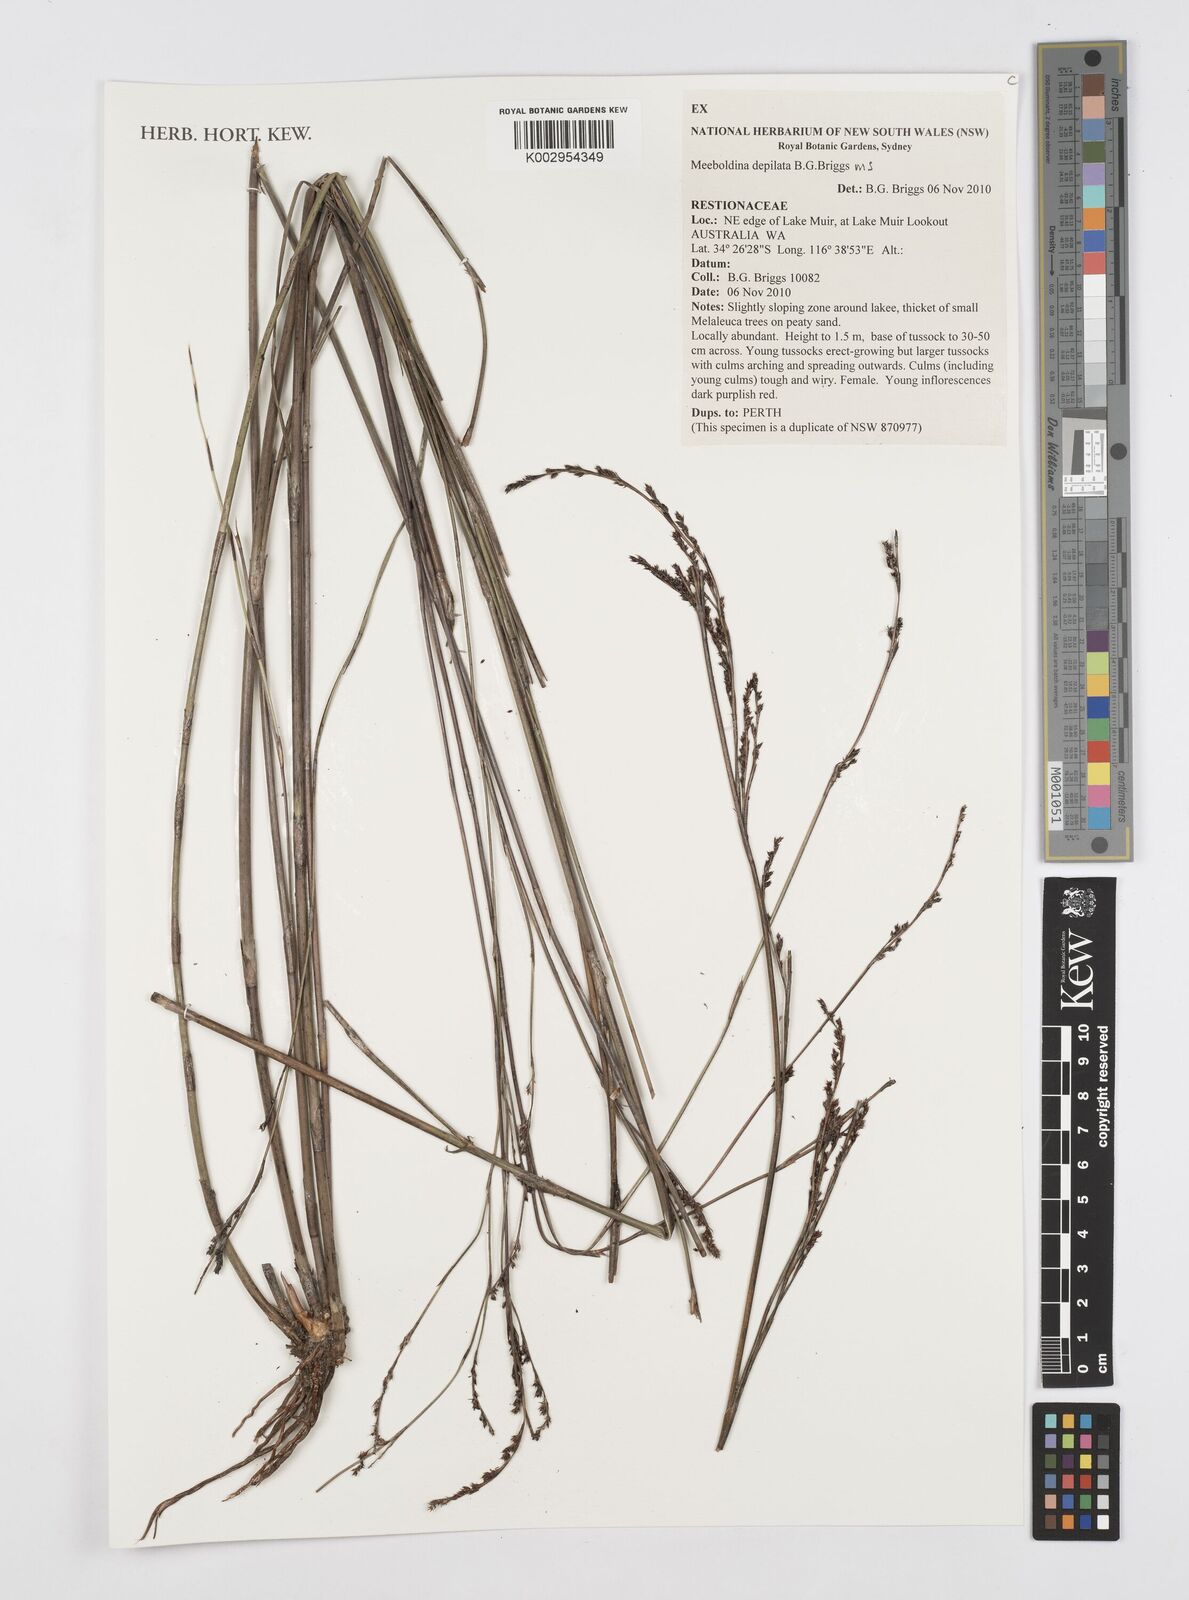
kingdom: Plantae
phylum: Tracheophyta
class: Liliopsida
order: Poales
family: Restionaceae
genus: Leptocarpus
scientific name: Leptocarpus depilatus
